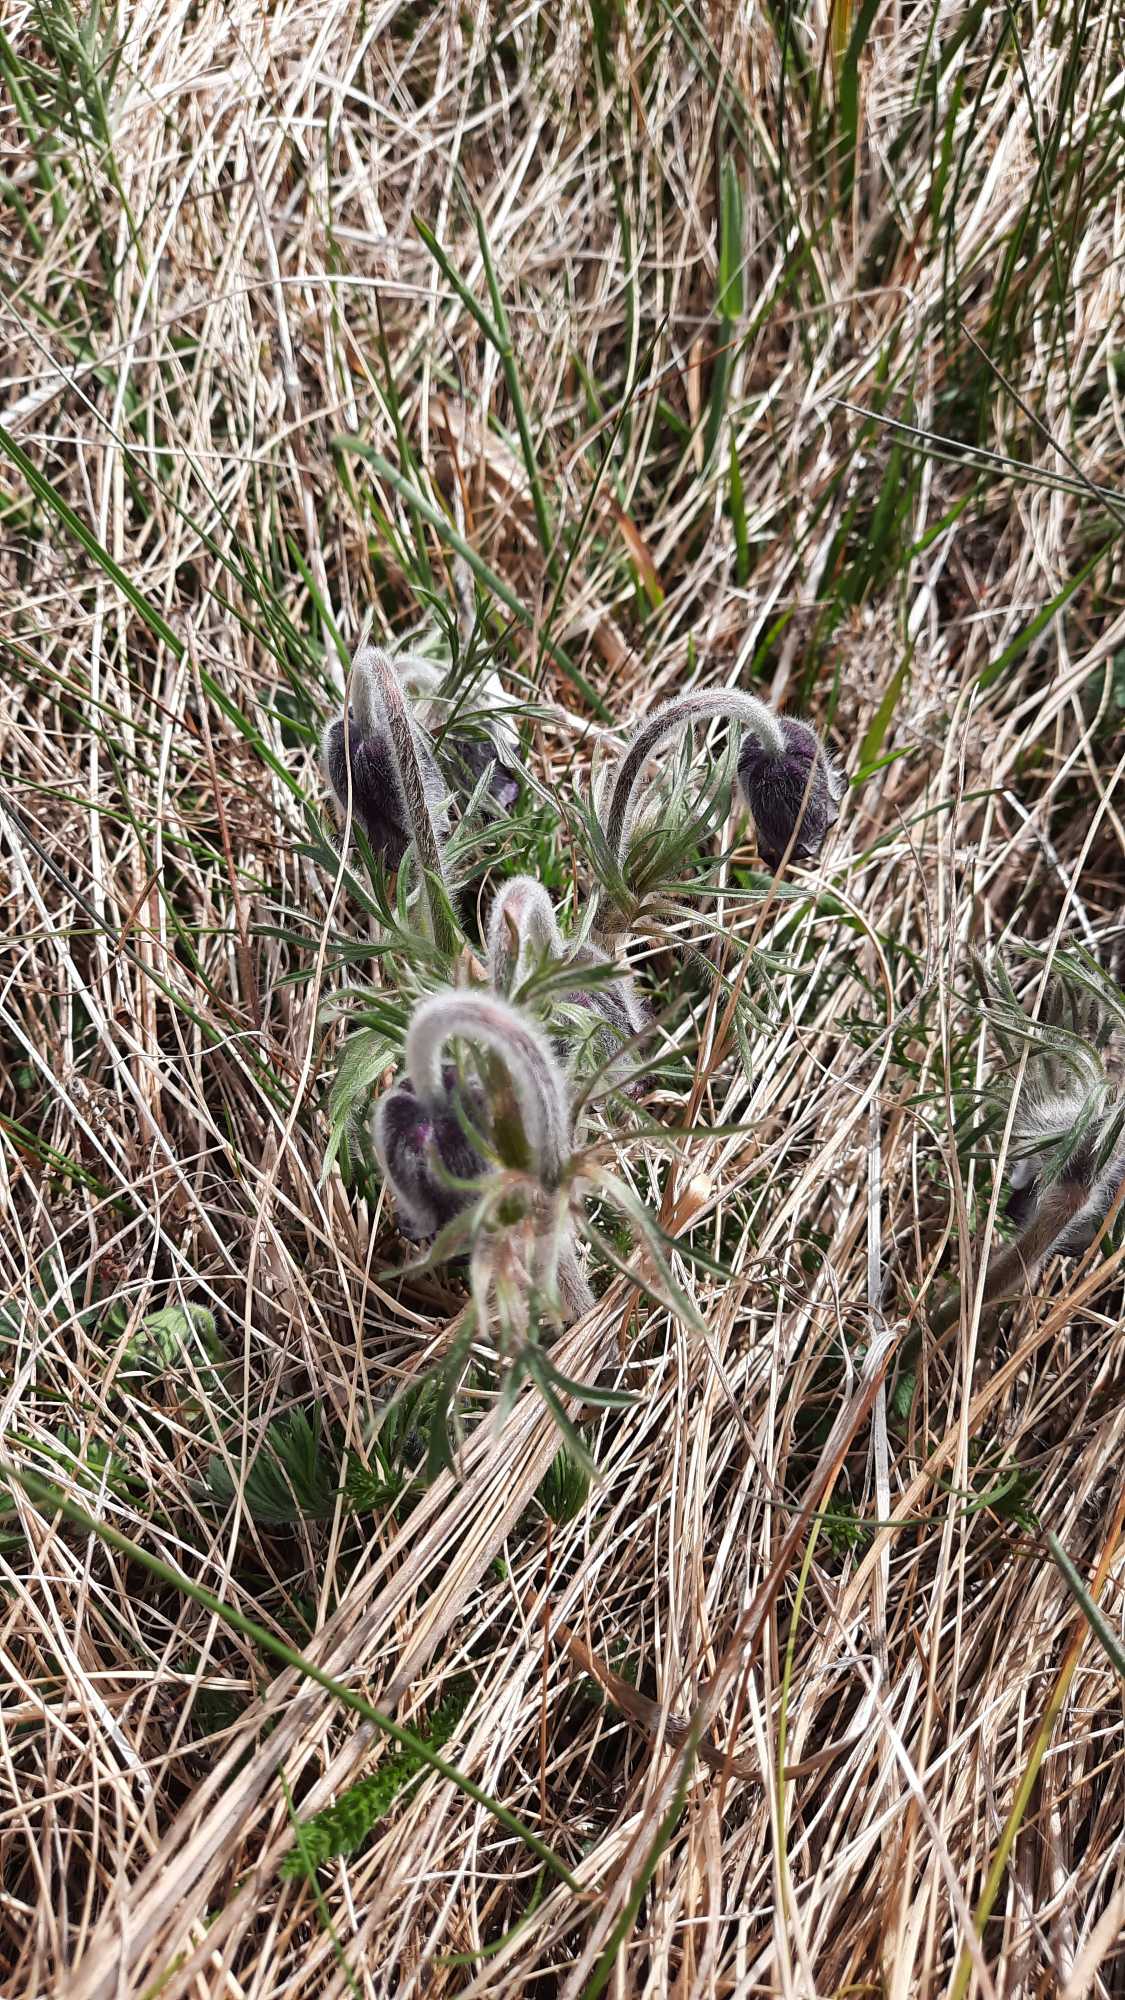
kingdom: Plantae
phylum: Tracheophyta
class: Magnoliopsida
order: Ranunculales
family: Ranunculaceae
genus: Pulsatilla
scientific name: Pulsatilla pratensis
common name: Nikkende kobjælde
